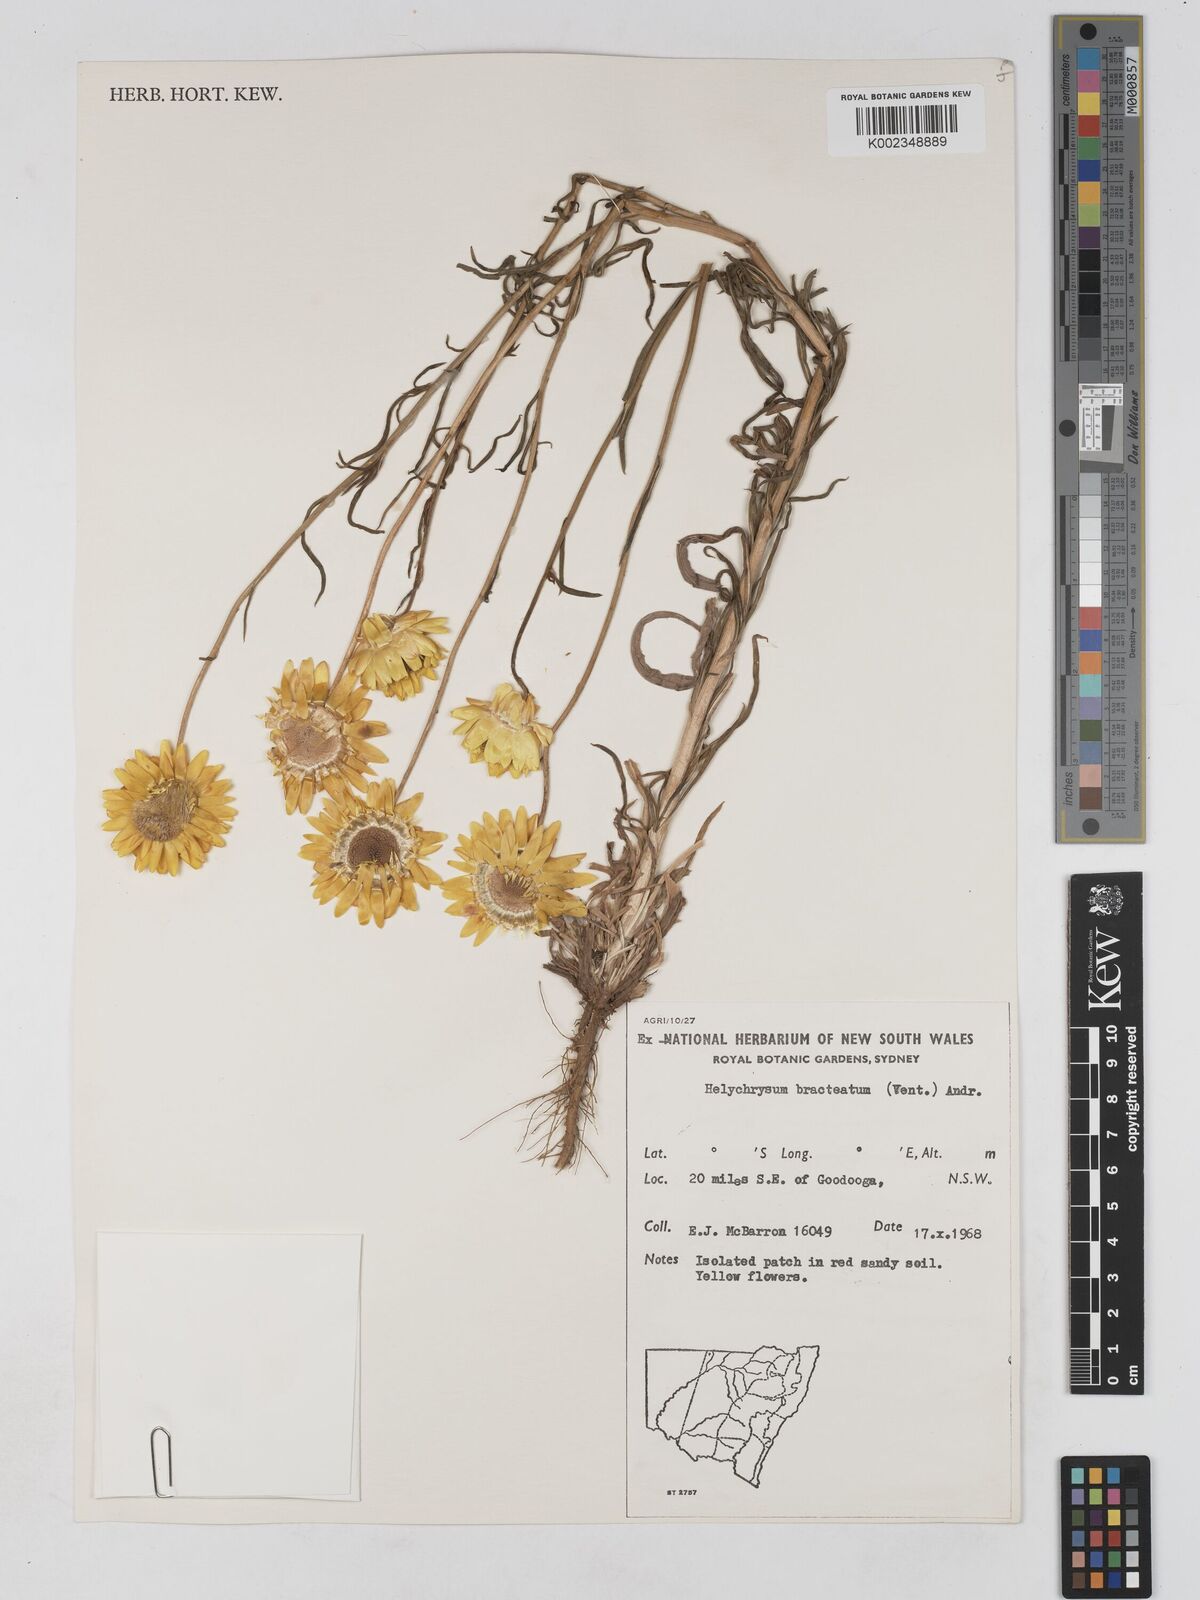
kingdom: Plantae
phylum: Tracheophyta
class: Magnoliopsida
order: Asterales
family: Asteraceae
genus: Xerochrysum
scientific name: Xerochrysum bracteatum
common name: Bracted strawflower
